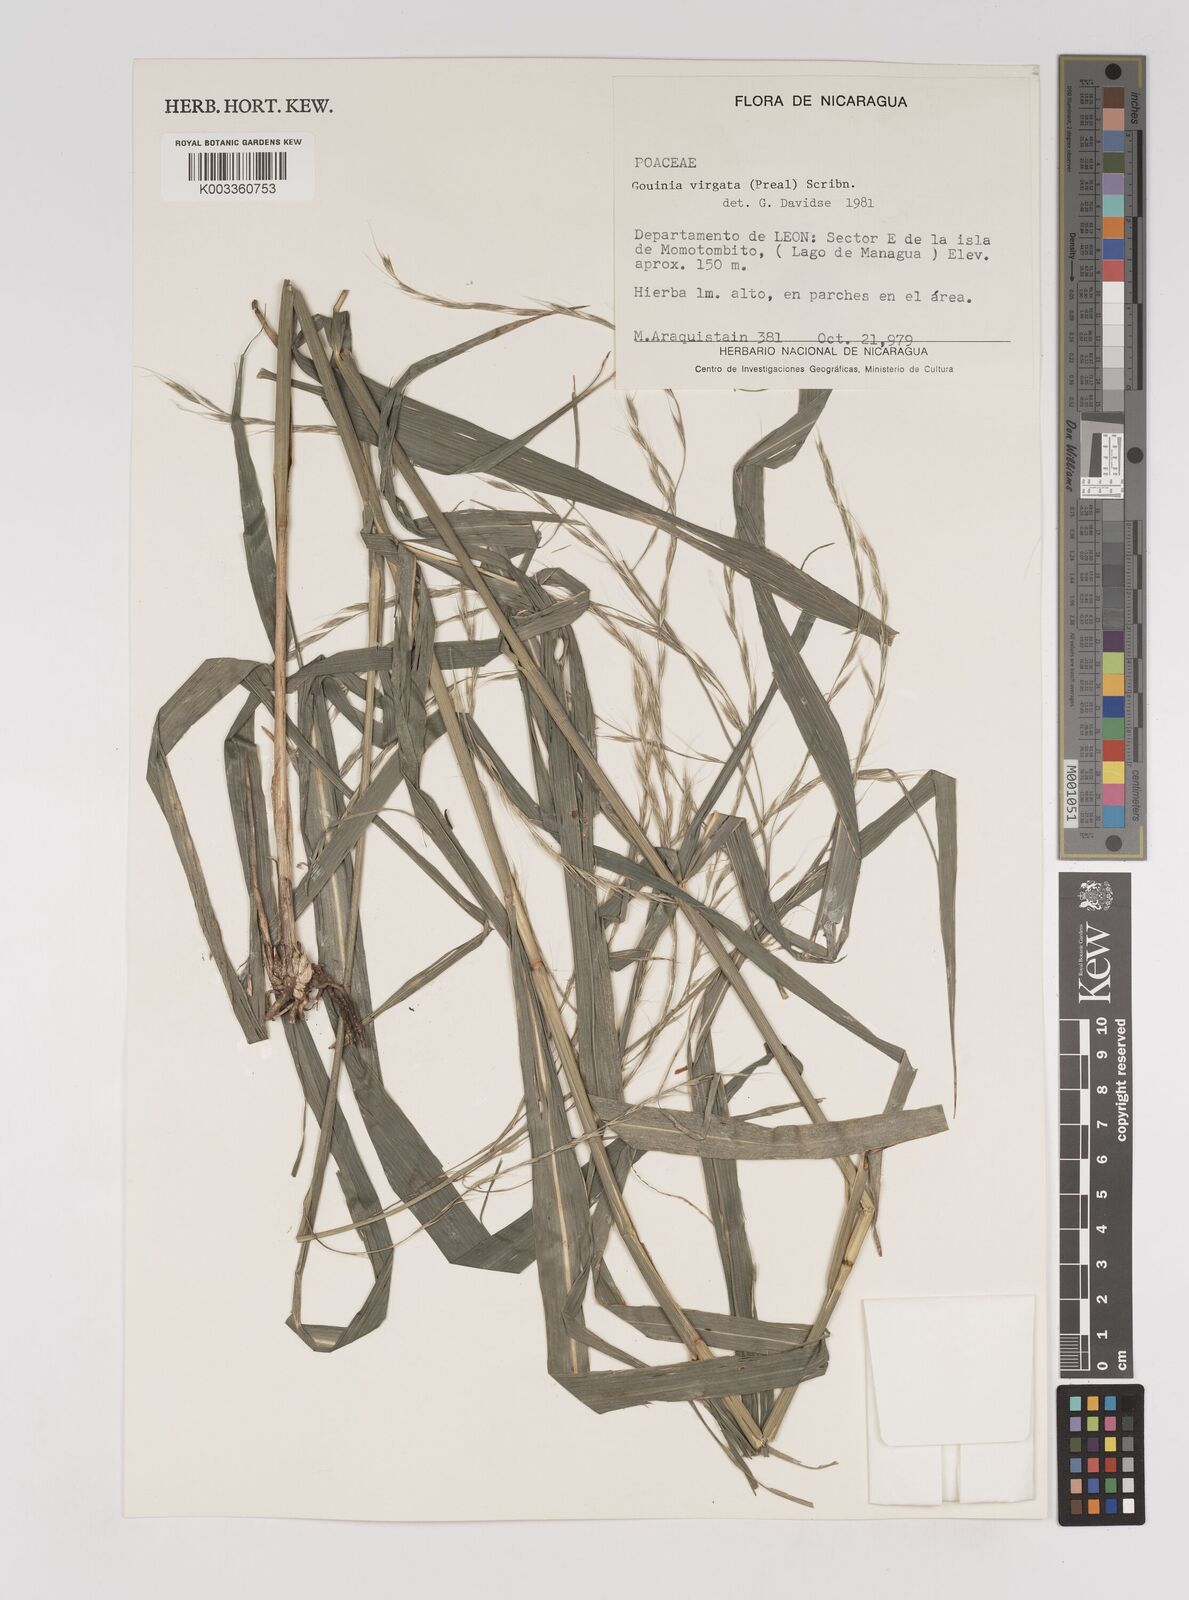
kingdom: Plantae
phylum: Tracheophyta
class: Liliopsida
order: Poales
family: Poaceae
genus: Gouinia
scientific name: Gouinia virgata
